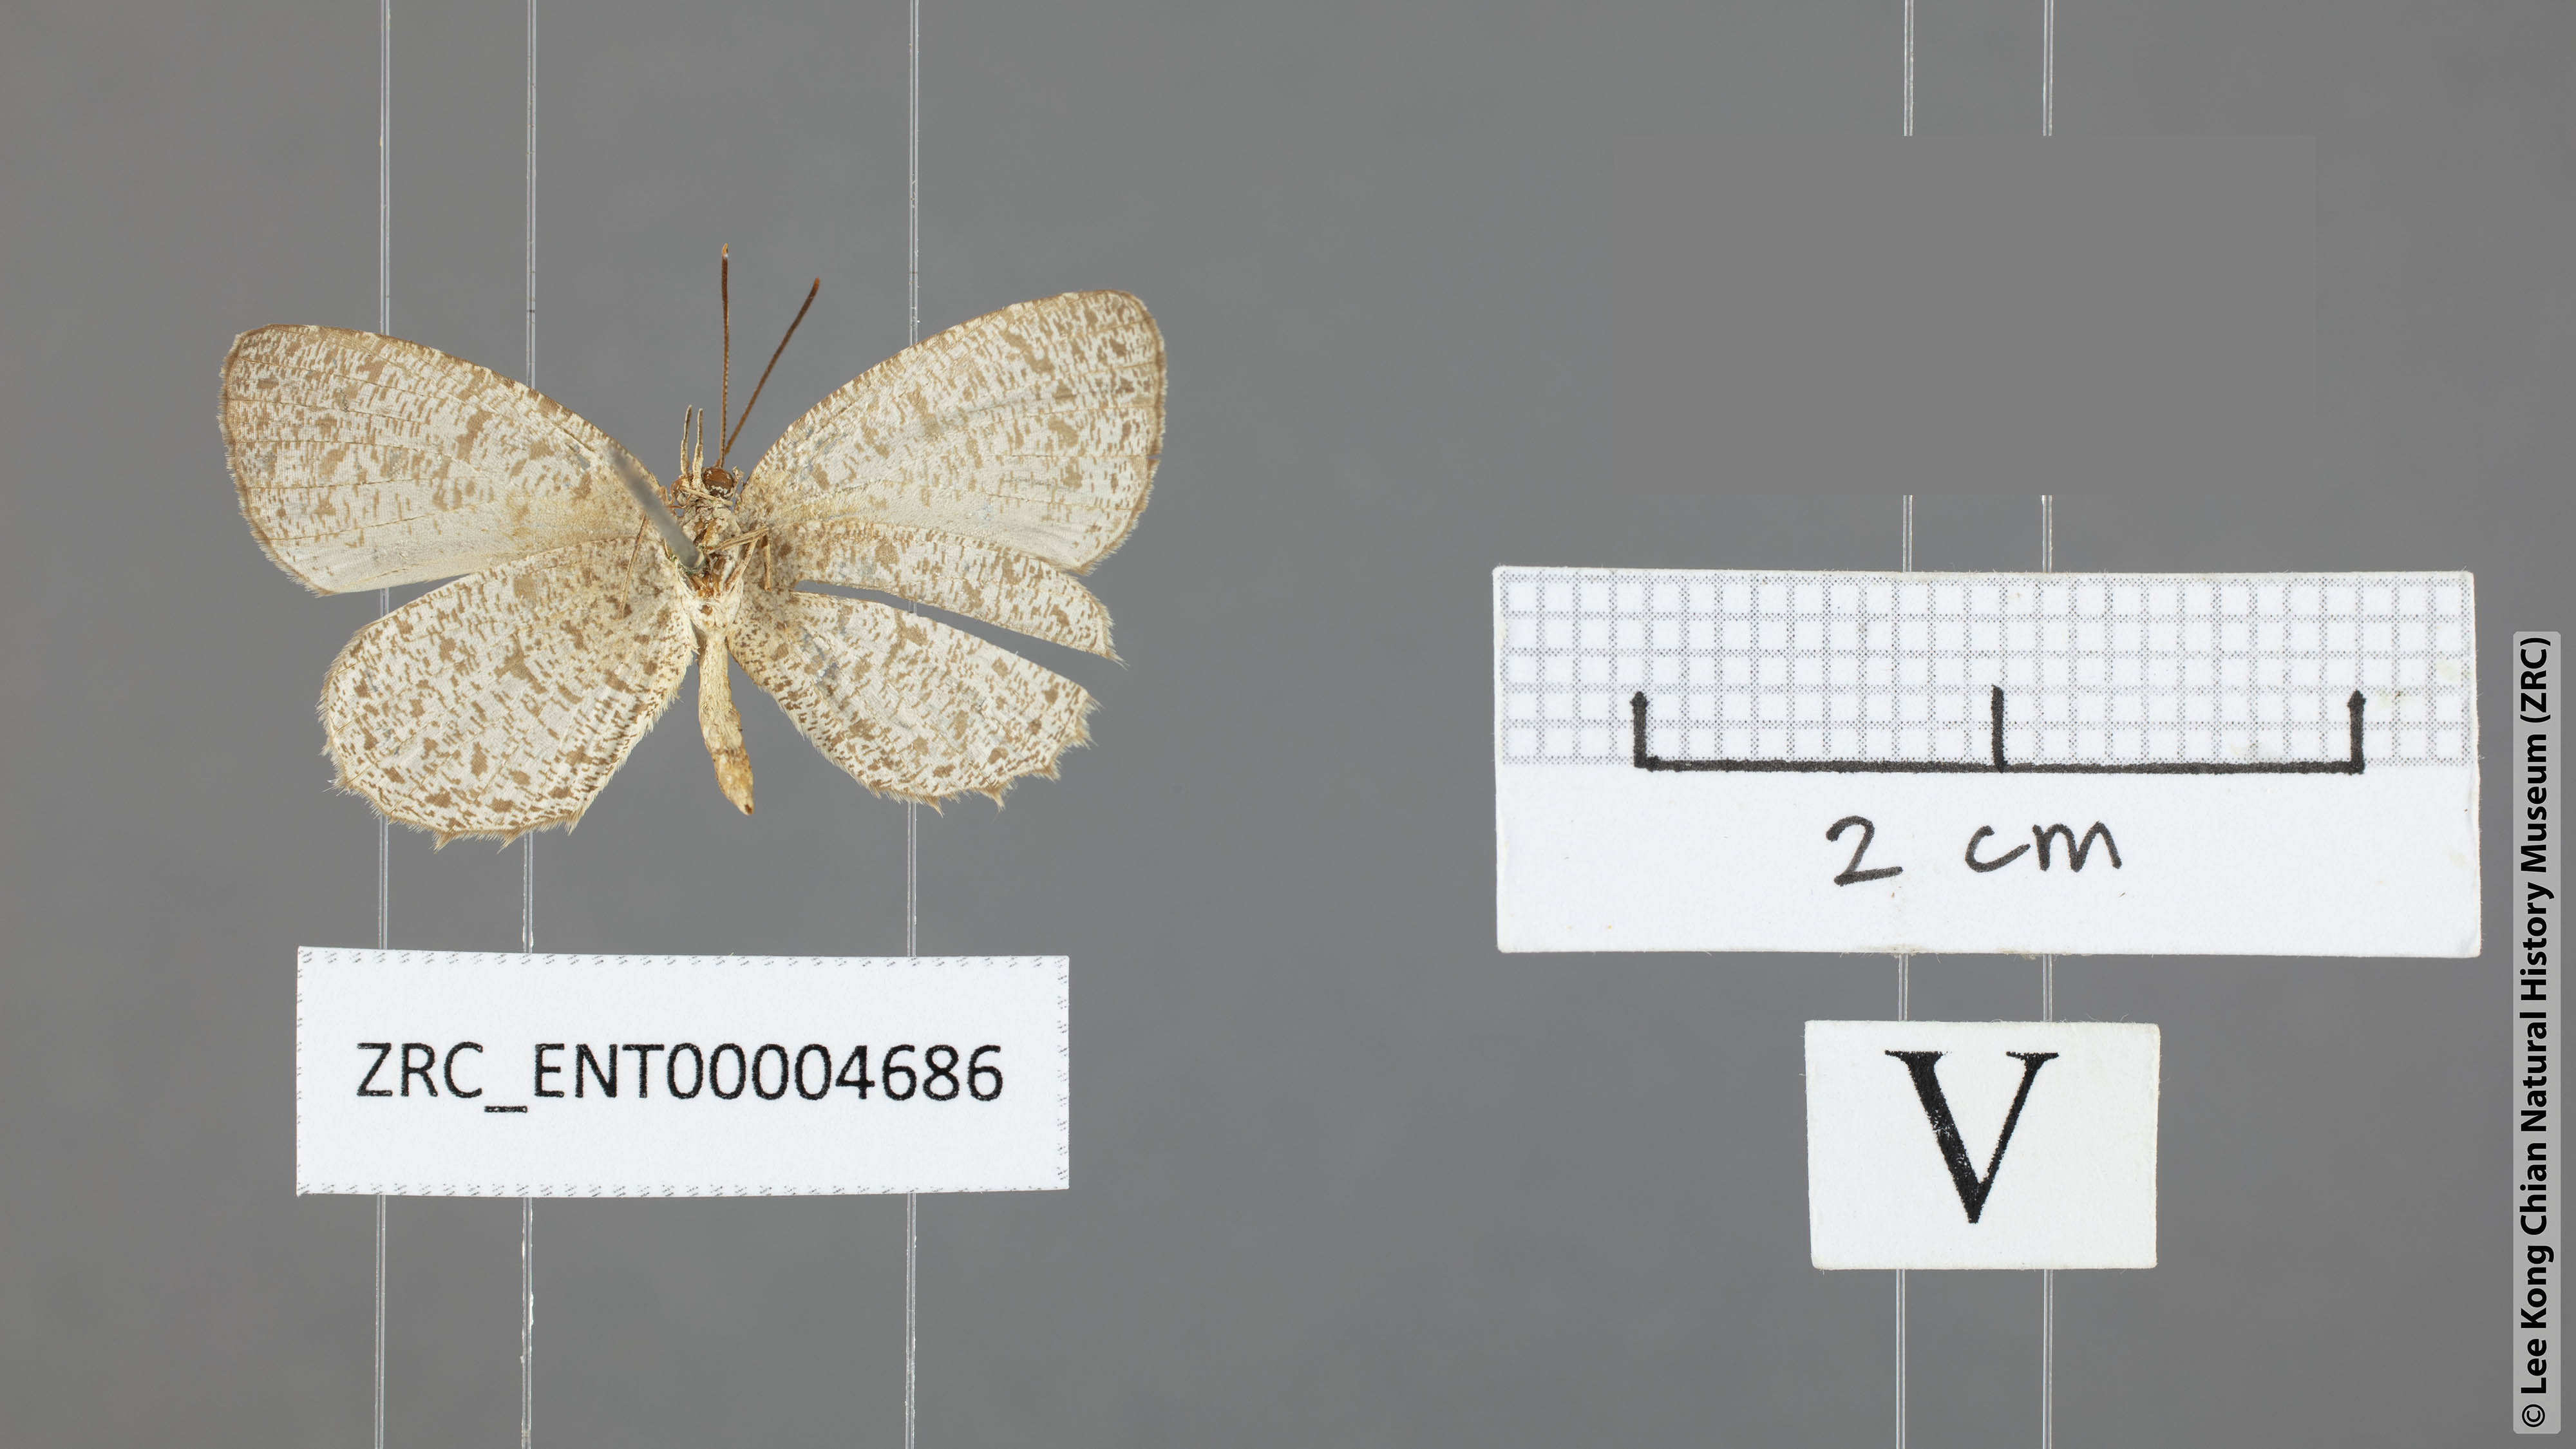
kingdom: Animalia
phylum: Arthropoda
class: Insecta
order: Lepidoptera
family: Lycaenidae
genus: Allotinus
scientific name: Allotinus davidis
